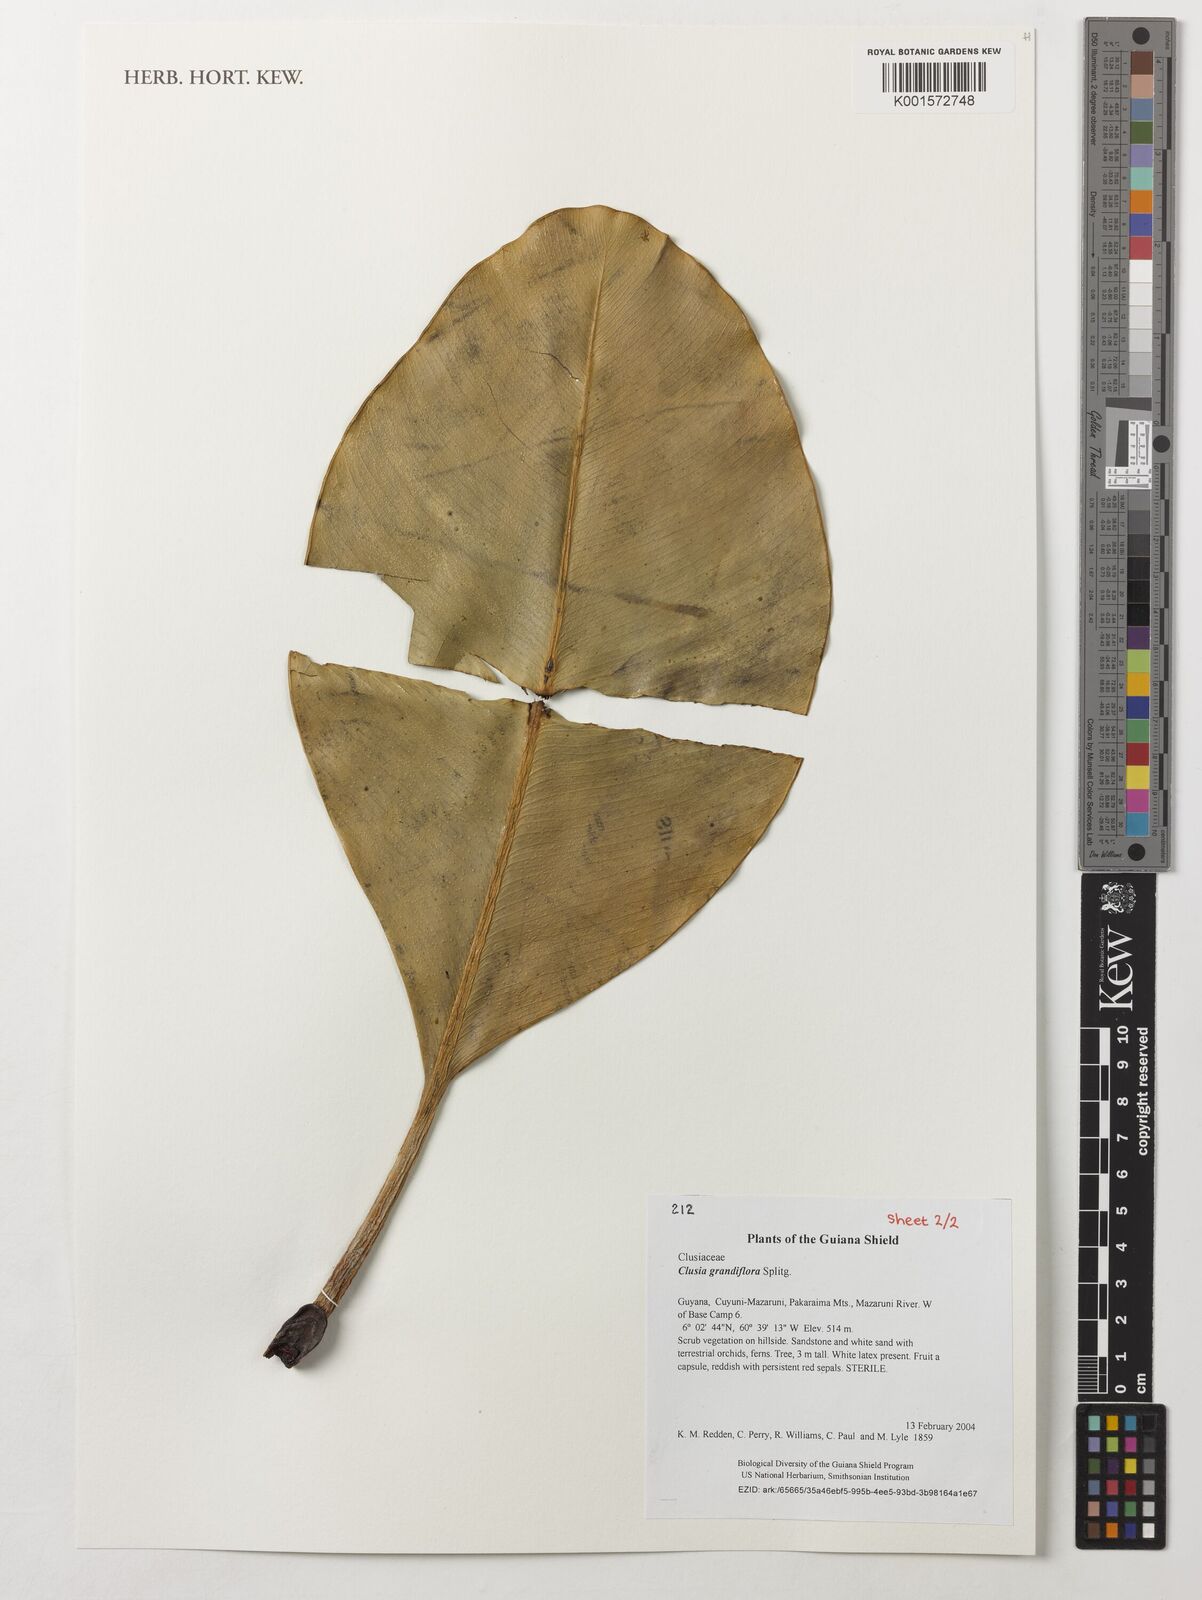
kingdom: Plantae
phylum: Tracheophyta
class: Magnoliopsida
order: Malpighiales
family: Clusiaceae
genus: Clusia
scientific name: Clusia grandiflora
